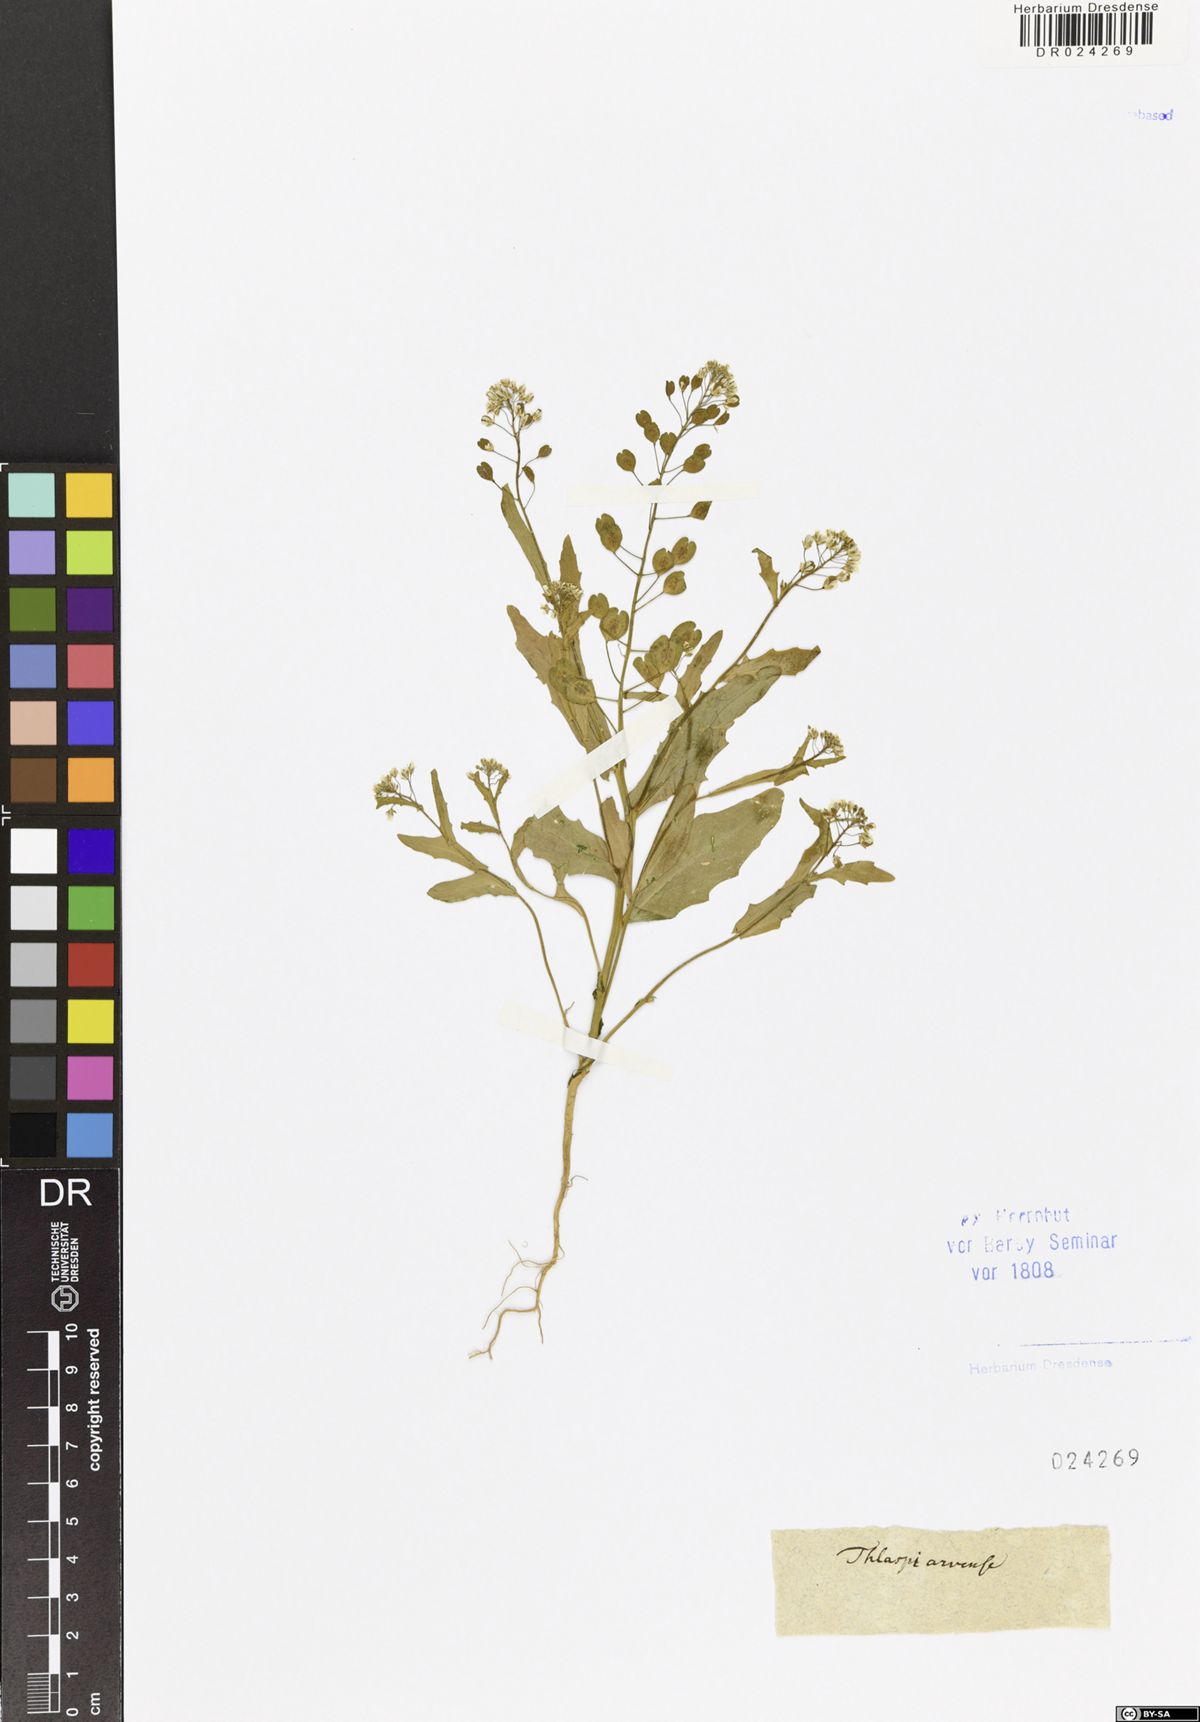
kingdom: Plantae
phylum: Tracheophyta
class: Magnoliopsida
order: Brassicales
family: Brassicaceae
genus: Thlaspi
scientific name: Thlaspi arvense
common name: Field pennycress
